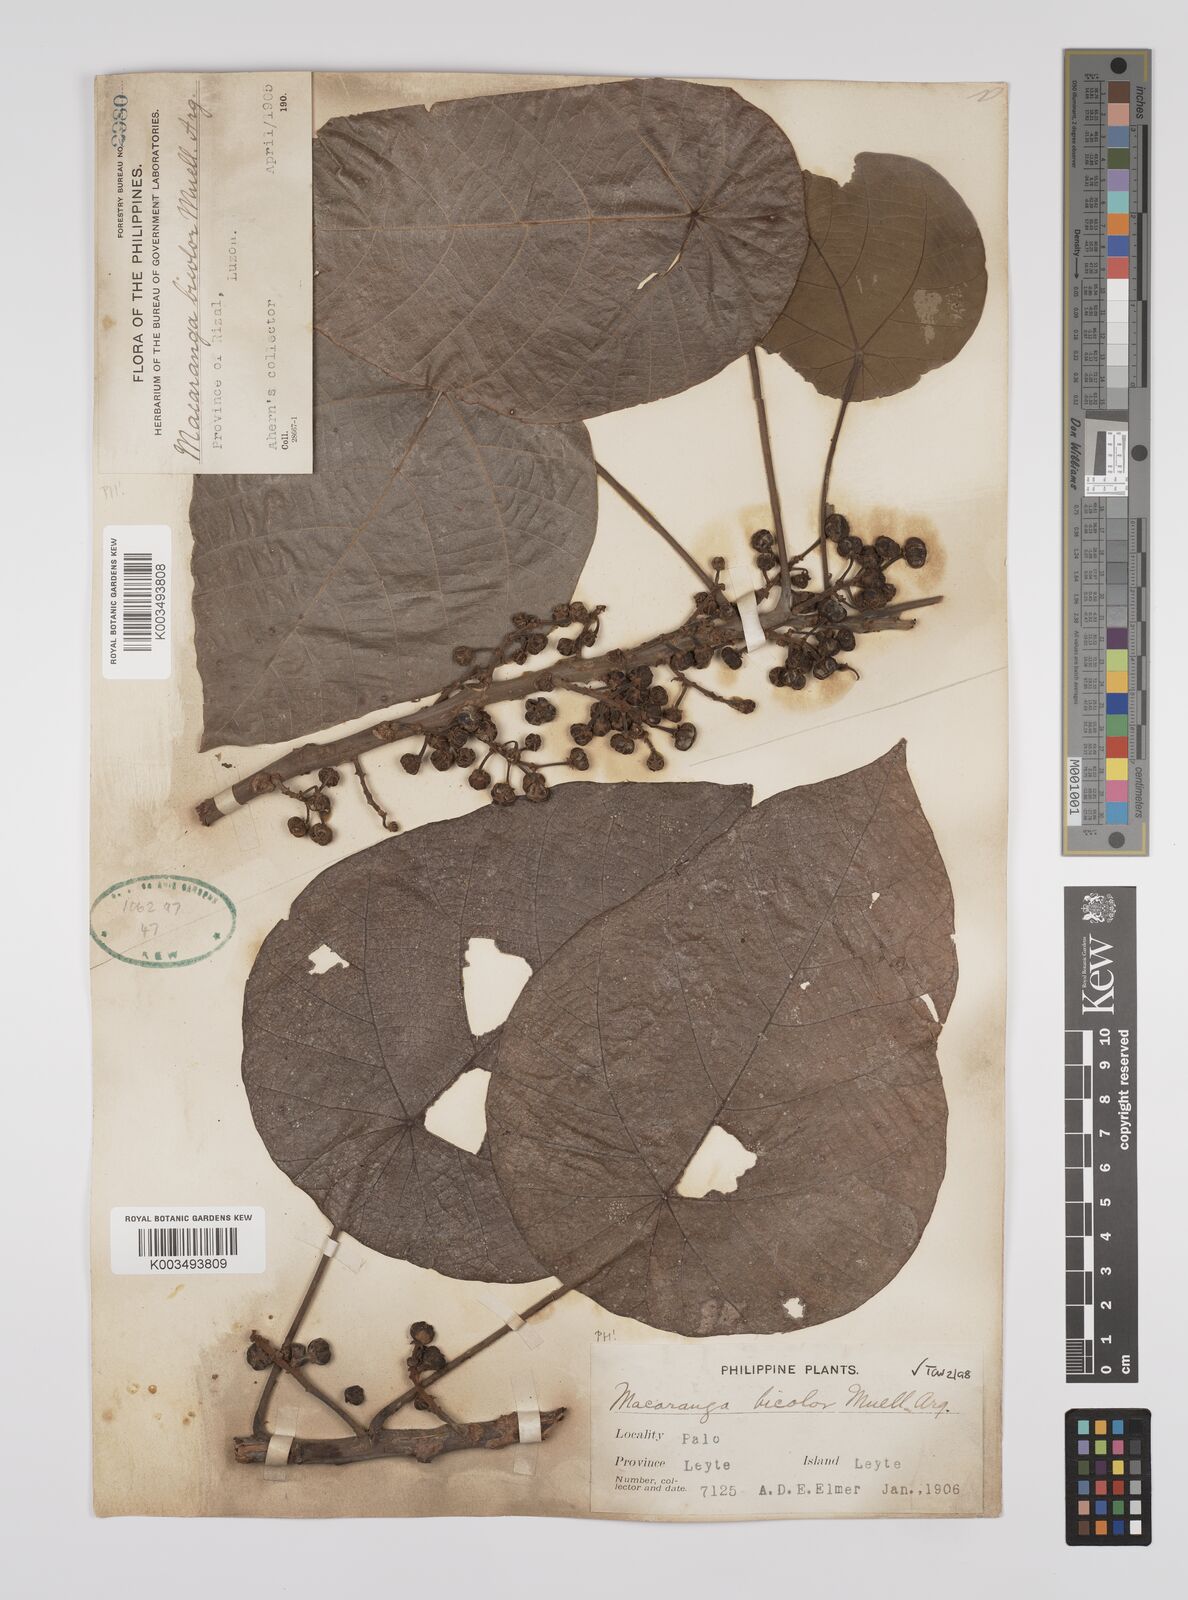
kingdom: Plantae
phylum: Tracheophyta
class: Magnoliopsida
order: Malpighiales
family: Euphorbiaceae
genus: Macaranga
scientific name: Macaranga bicolor
